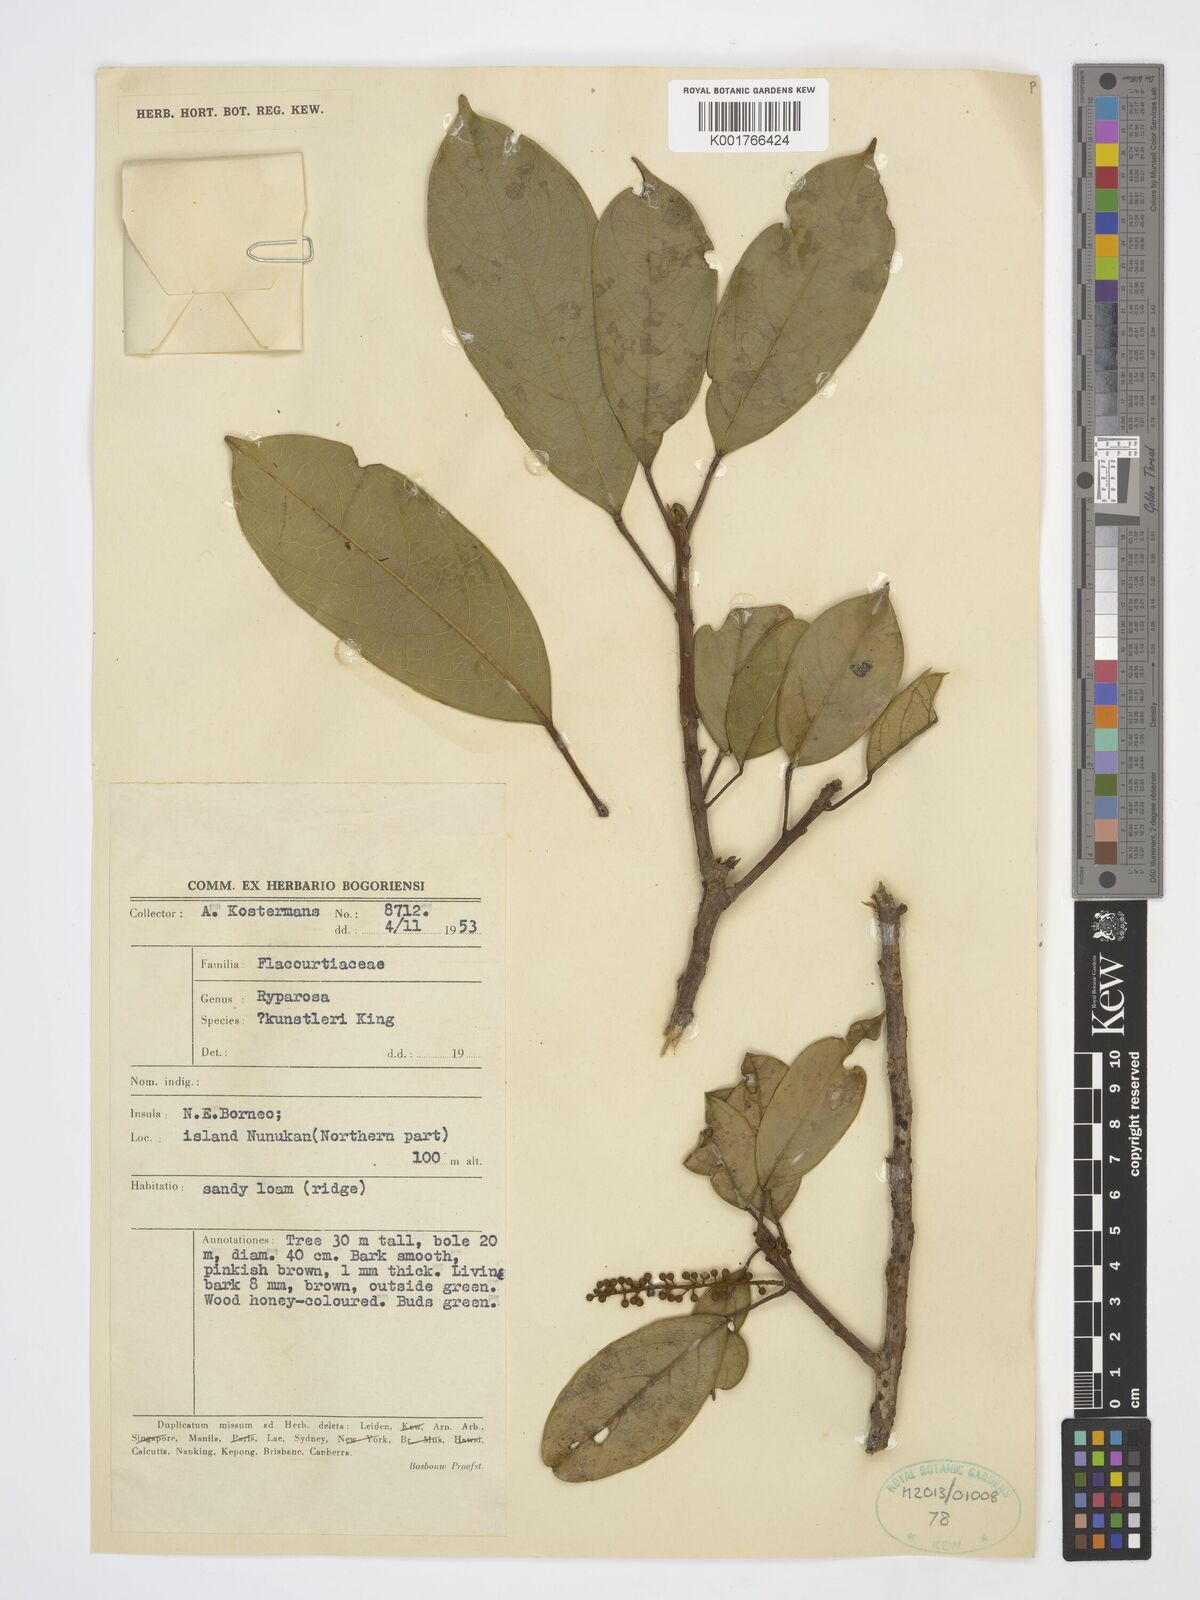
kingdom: Plantae
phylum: Tracheophyta
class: Magnoliopsida
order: Malpighiales
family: Achariaceae
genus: Ryparosa
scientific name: Ryparosa kunstleri
